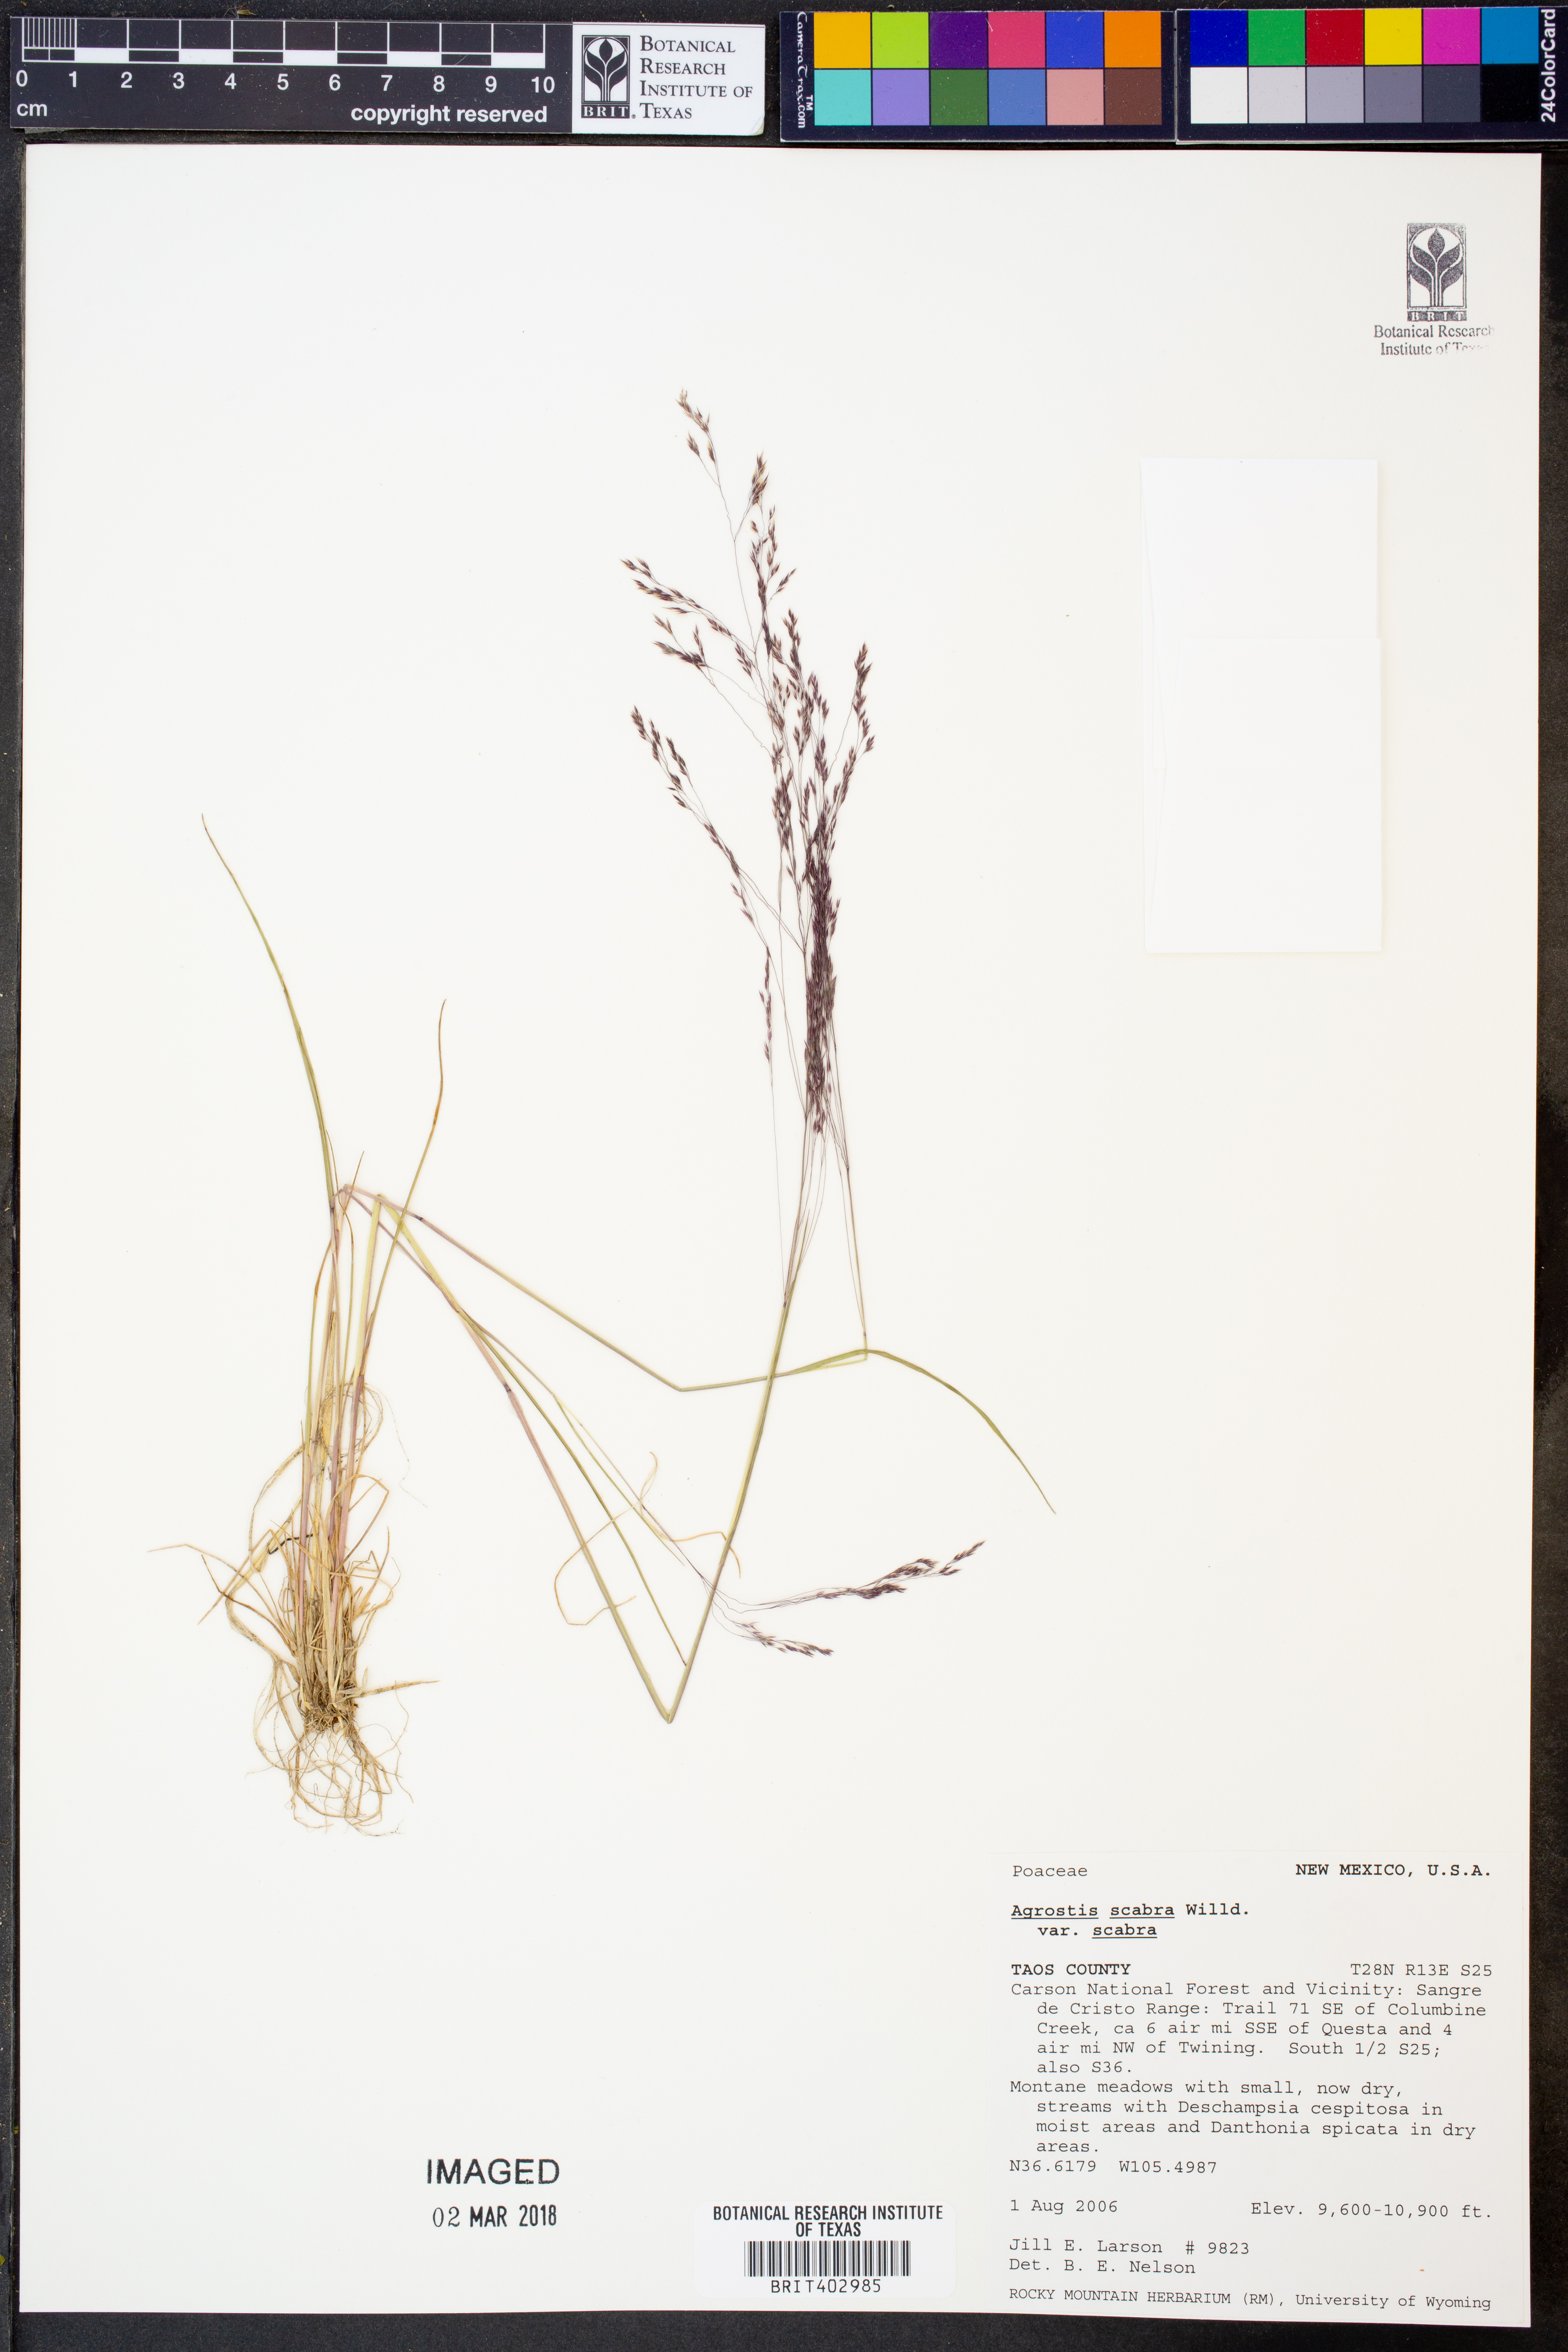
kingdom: Plantae
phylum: Tracheophyta
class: Liliopsida
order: Poales
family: Poaceae
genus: Agrostis
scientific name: Agrostis scabra
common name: Rough bent
